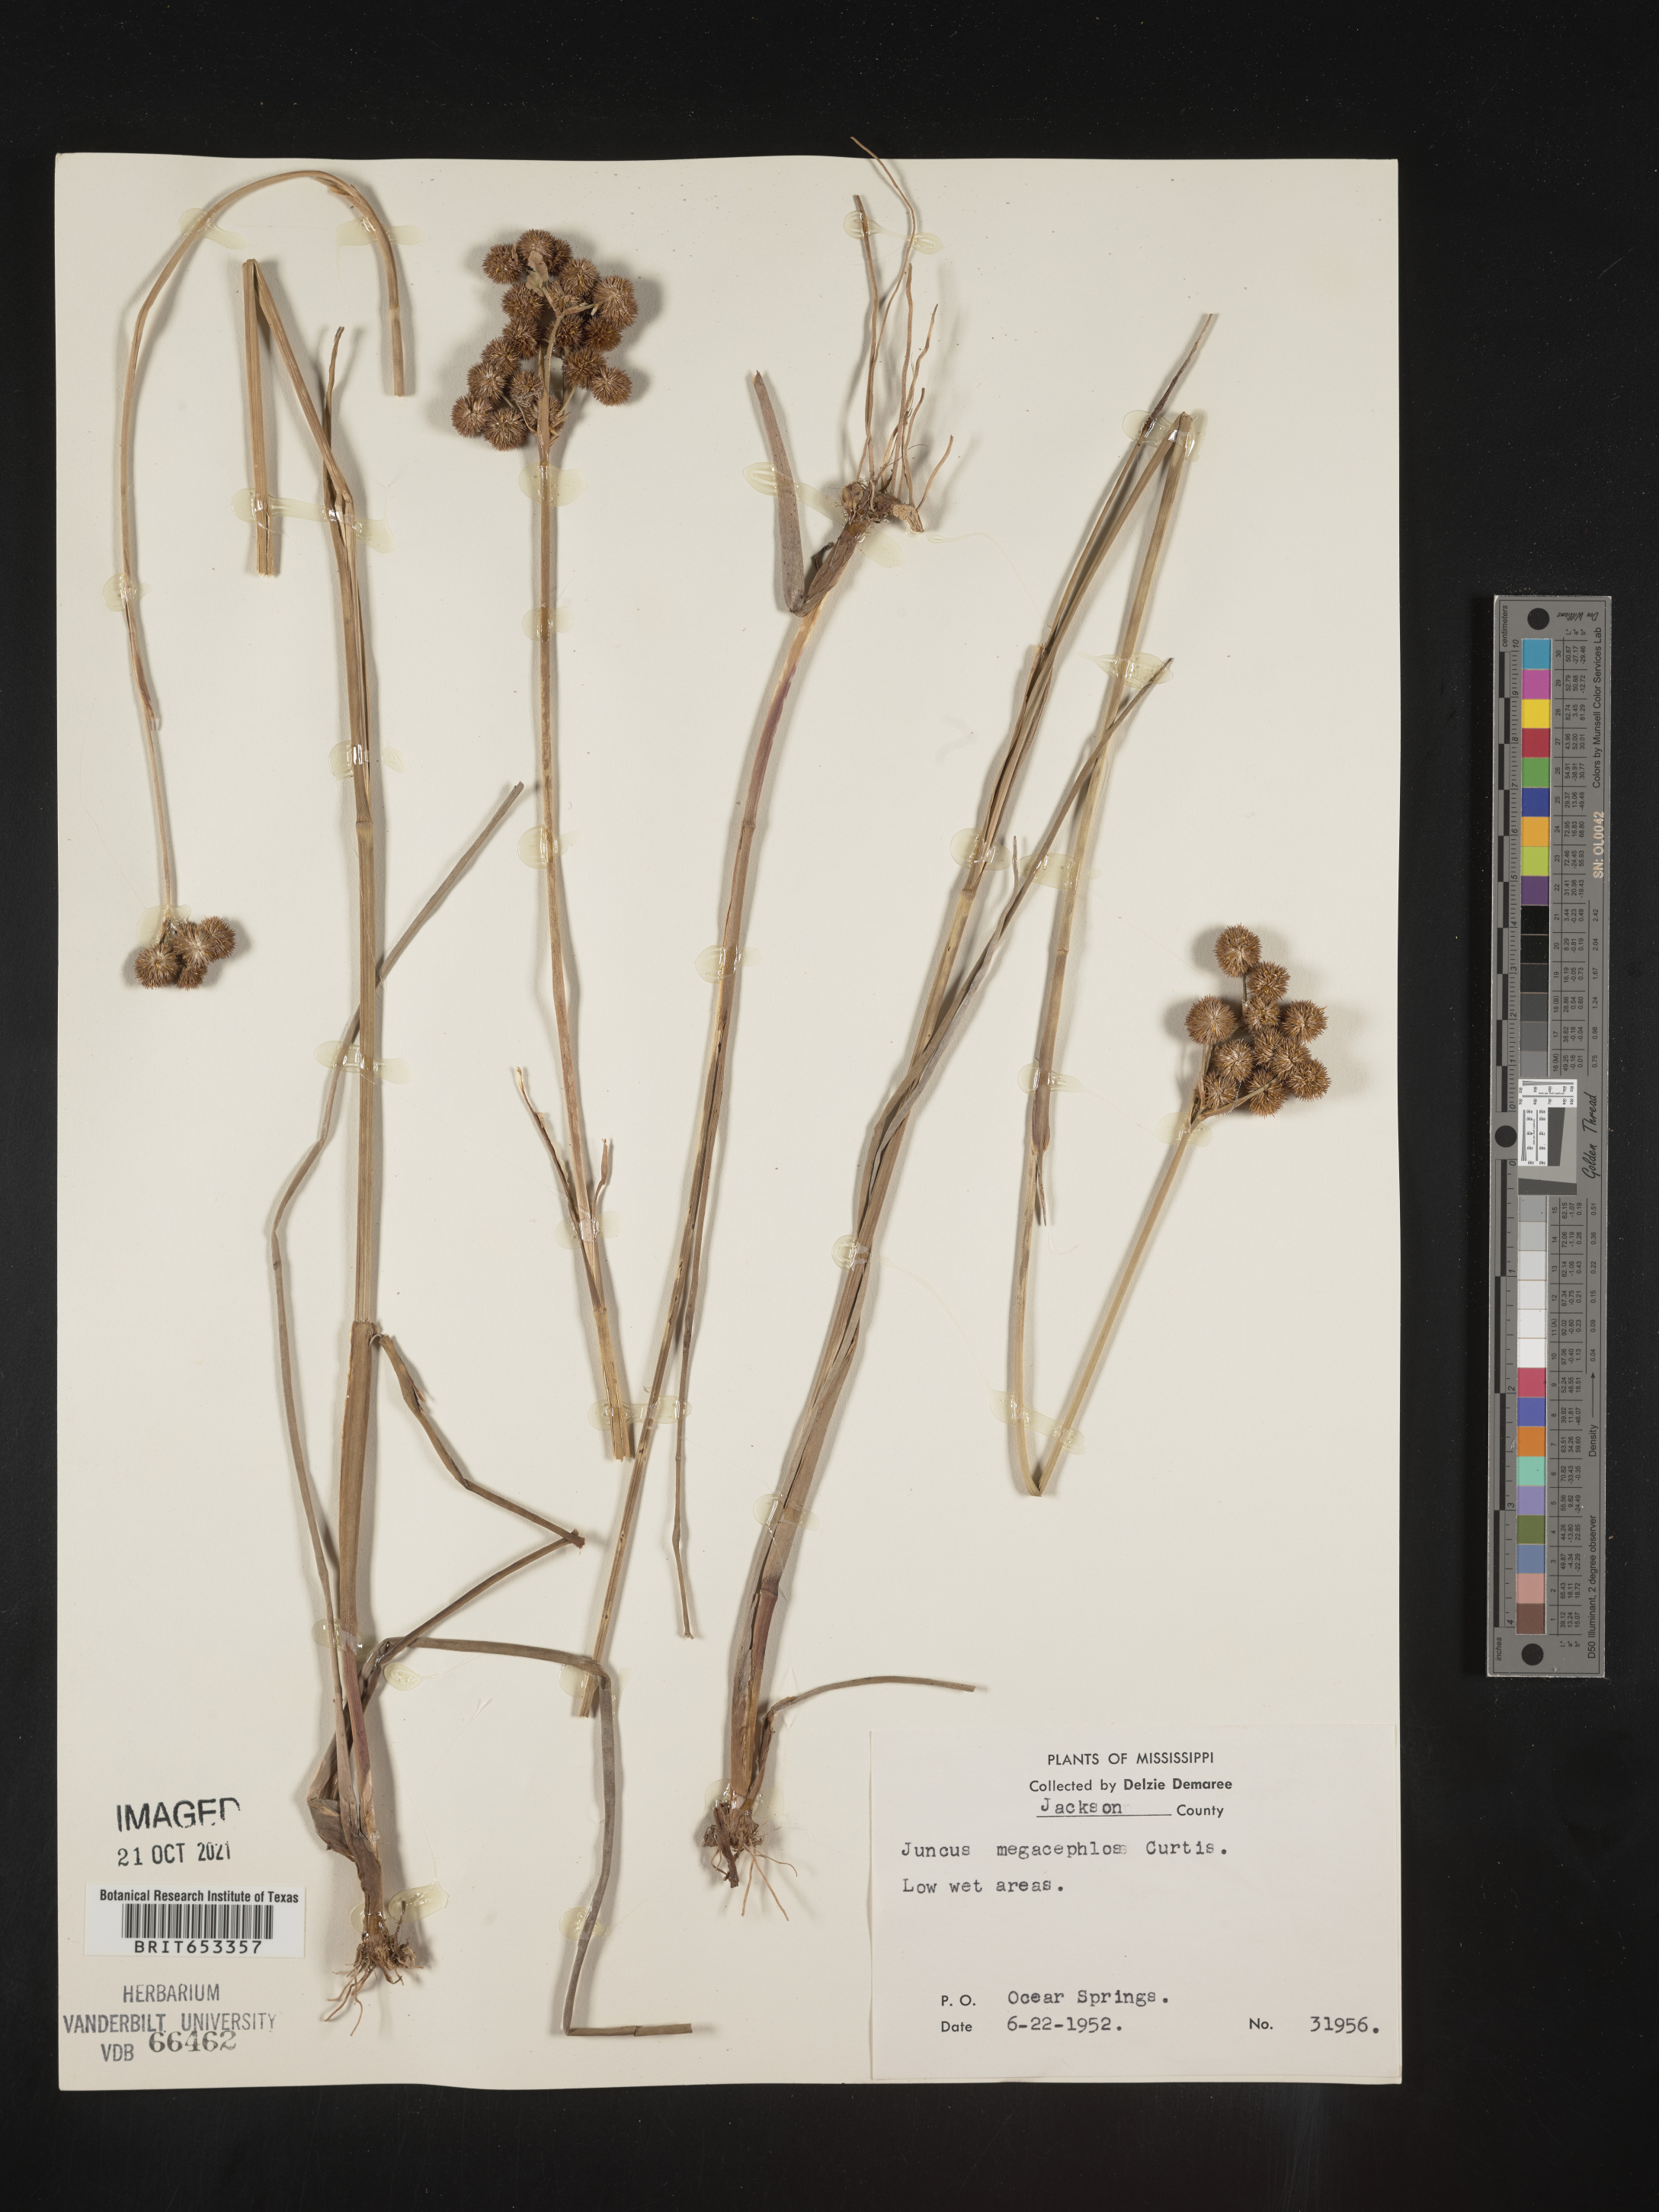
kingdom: Plantae
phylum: Tracheophyta
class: Liliopsida
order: Poales
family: Juncaceae
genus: Juncus
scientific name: Juncus megacephalus
